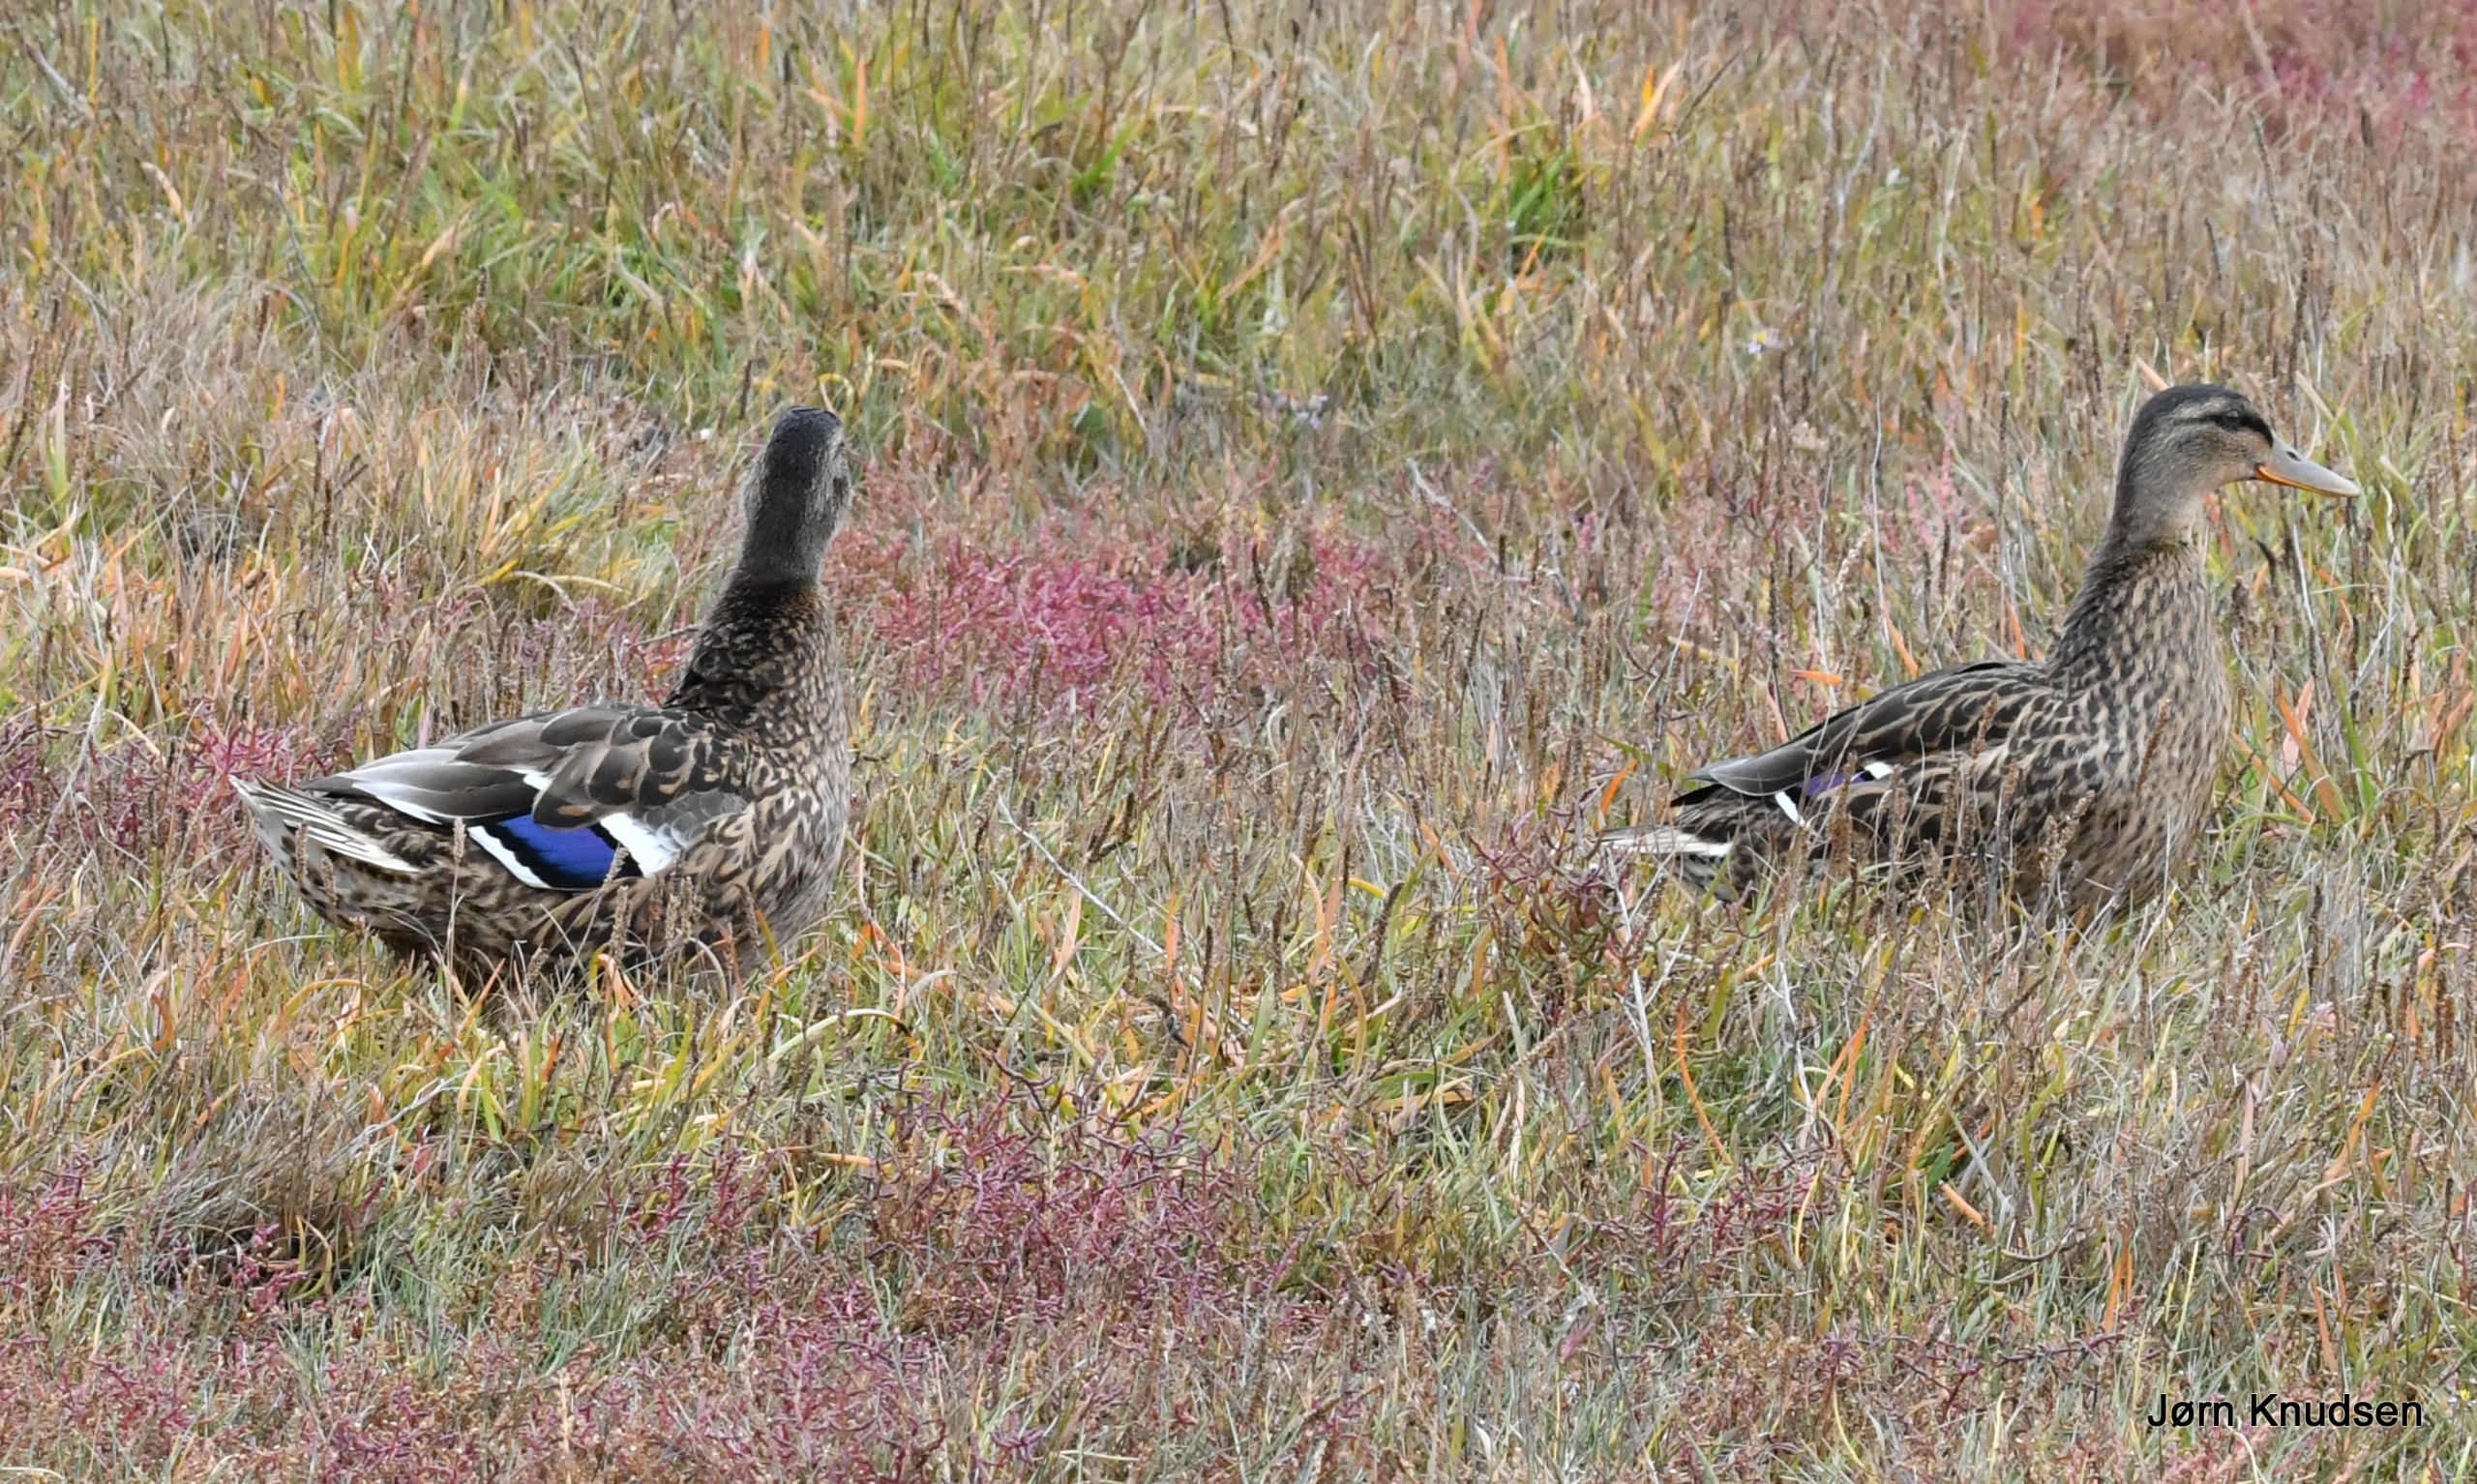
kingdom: Animalia
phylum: Chordata
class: Aves
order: Anseriformes
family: Anatidae
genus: Anas
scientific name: Anas platyrhynchos
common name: Gråand
